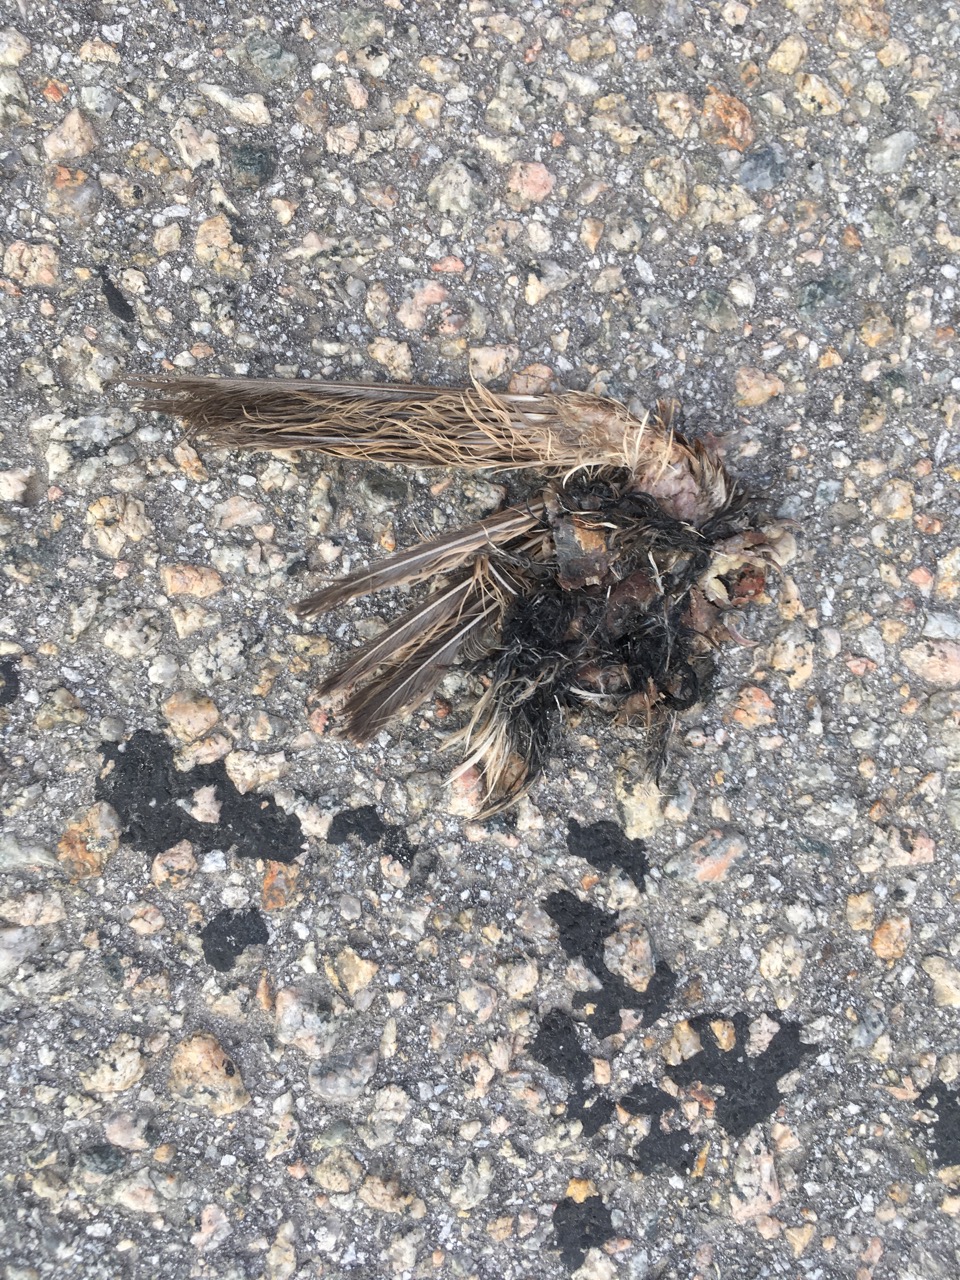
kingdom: Animalia
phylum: Chordata
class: Aves
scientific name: Aves
